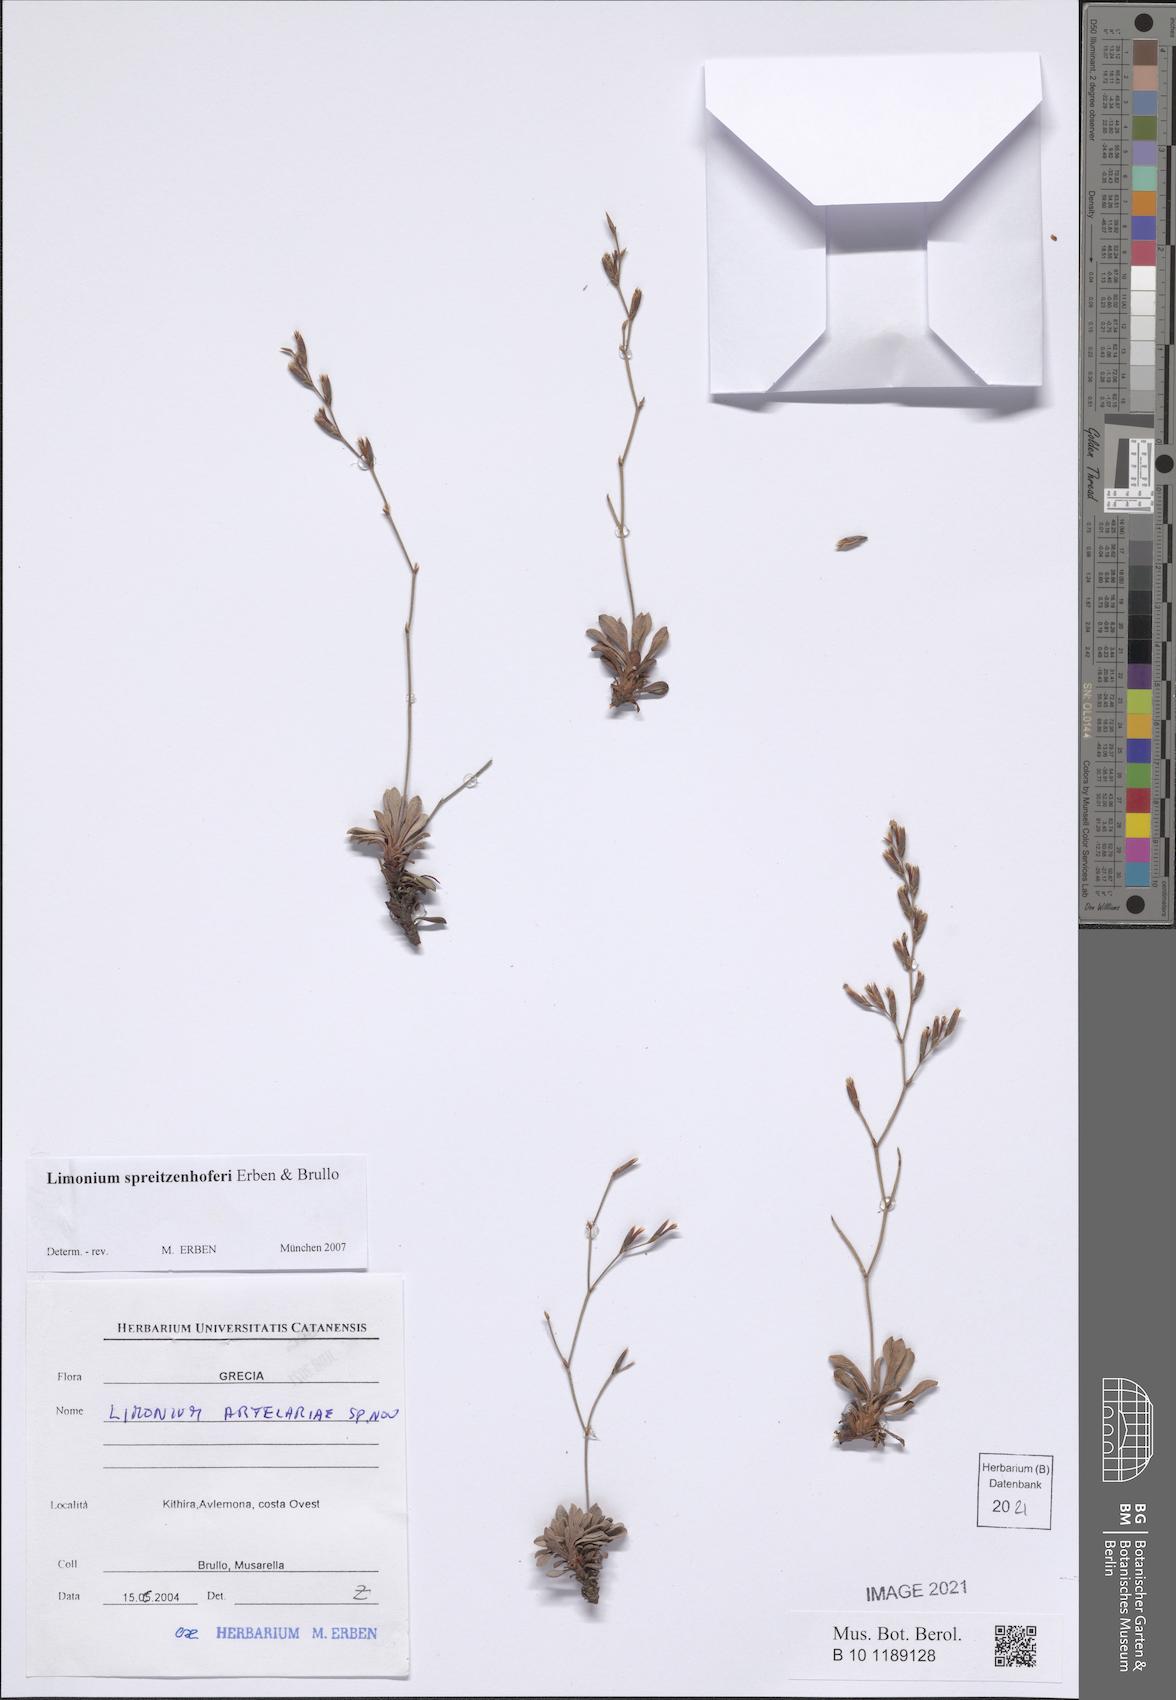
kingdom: Plantae
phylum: Tracheophyta
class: Magnoliopsida
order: Caryophyllales
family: Plumbaginaceae
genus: Limonium
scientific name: Limonium spreitzenhoferi
